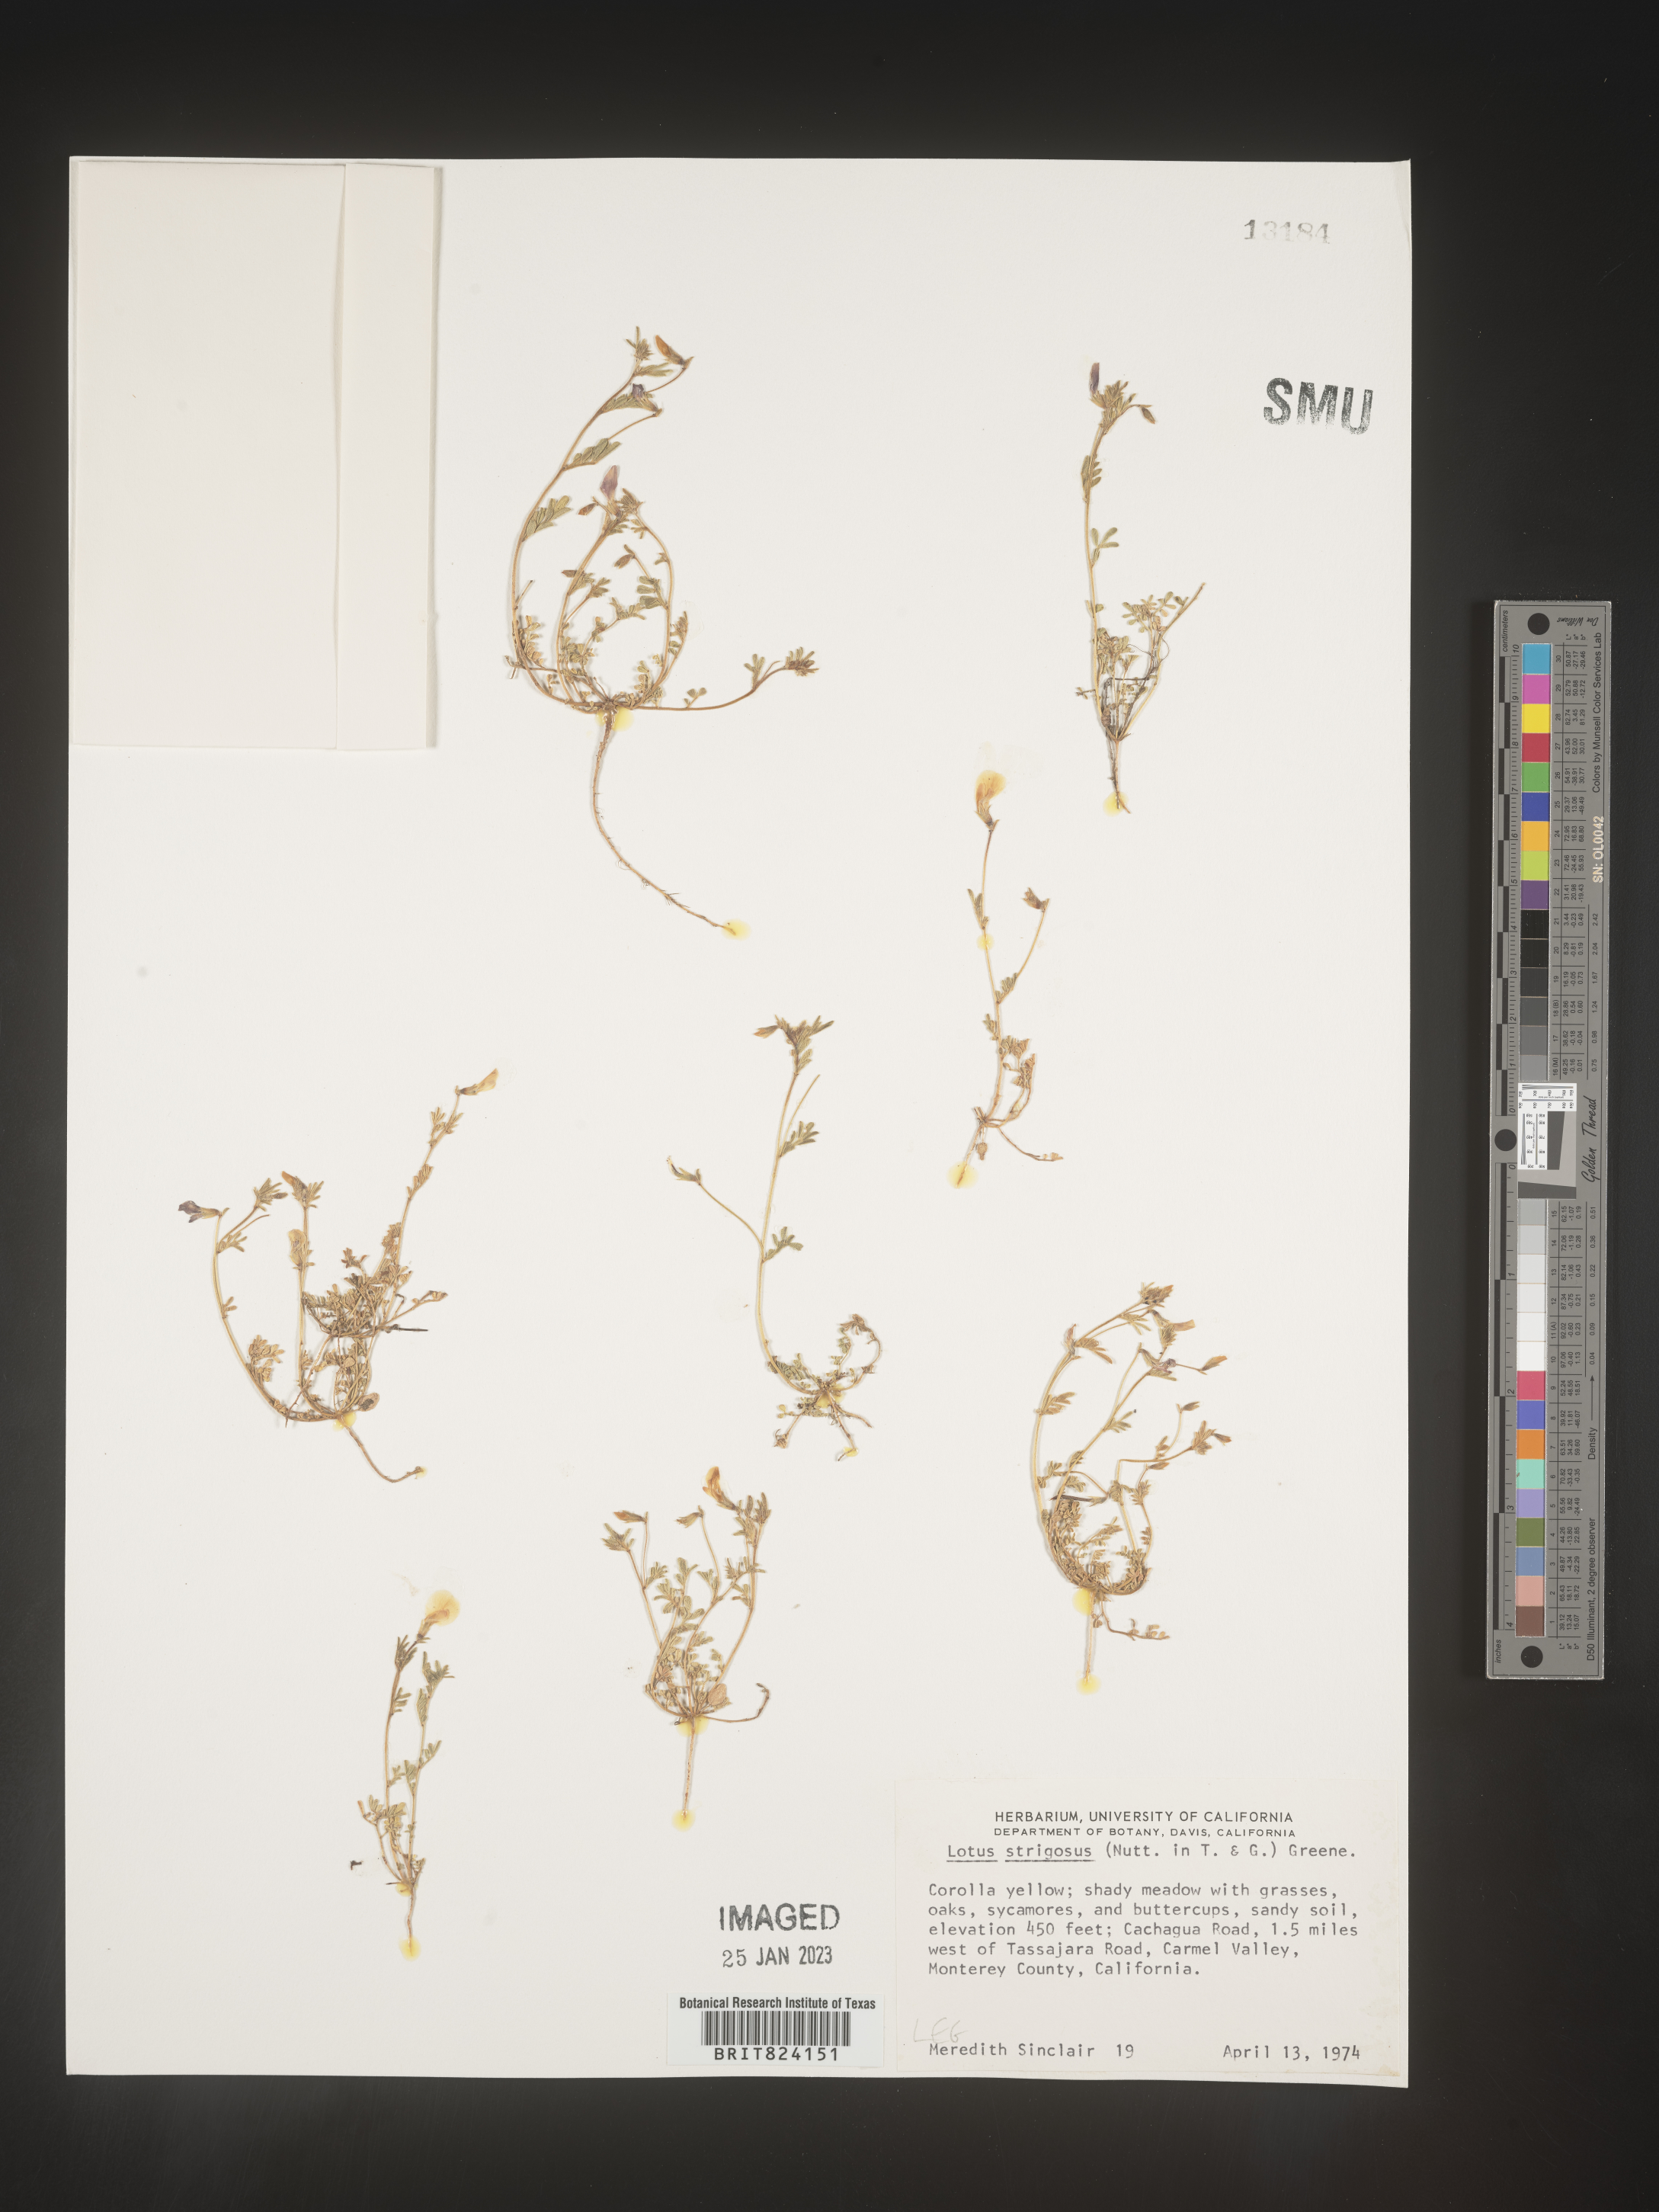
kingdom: Plantae
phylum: Tracheophyta
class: Magnoliopsida
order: Fabales
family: Fabaceae
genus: Lotus
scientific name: Lotus
